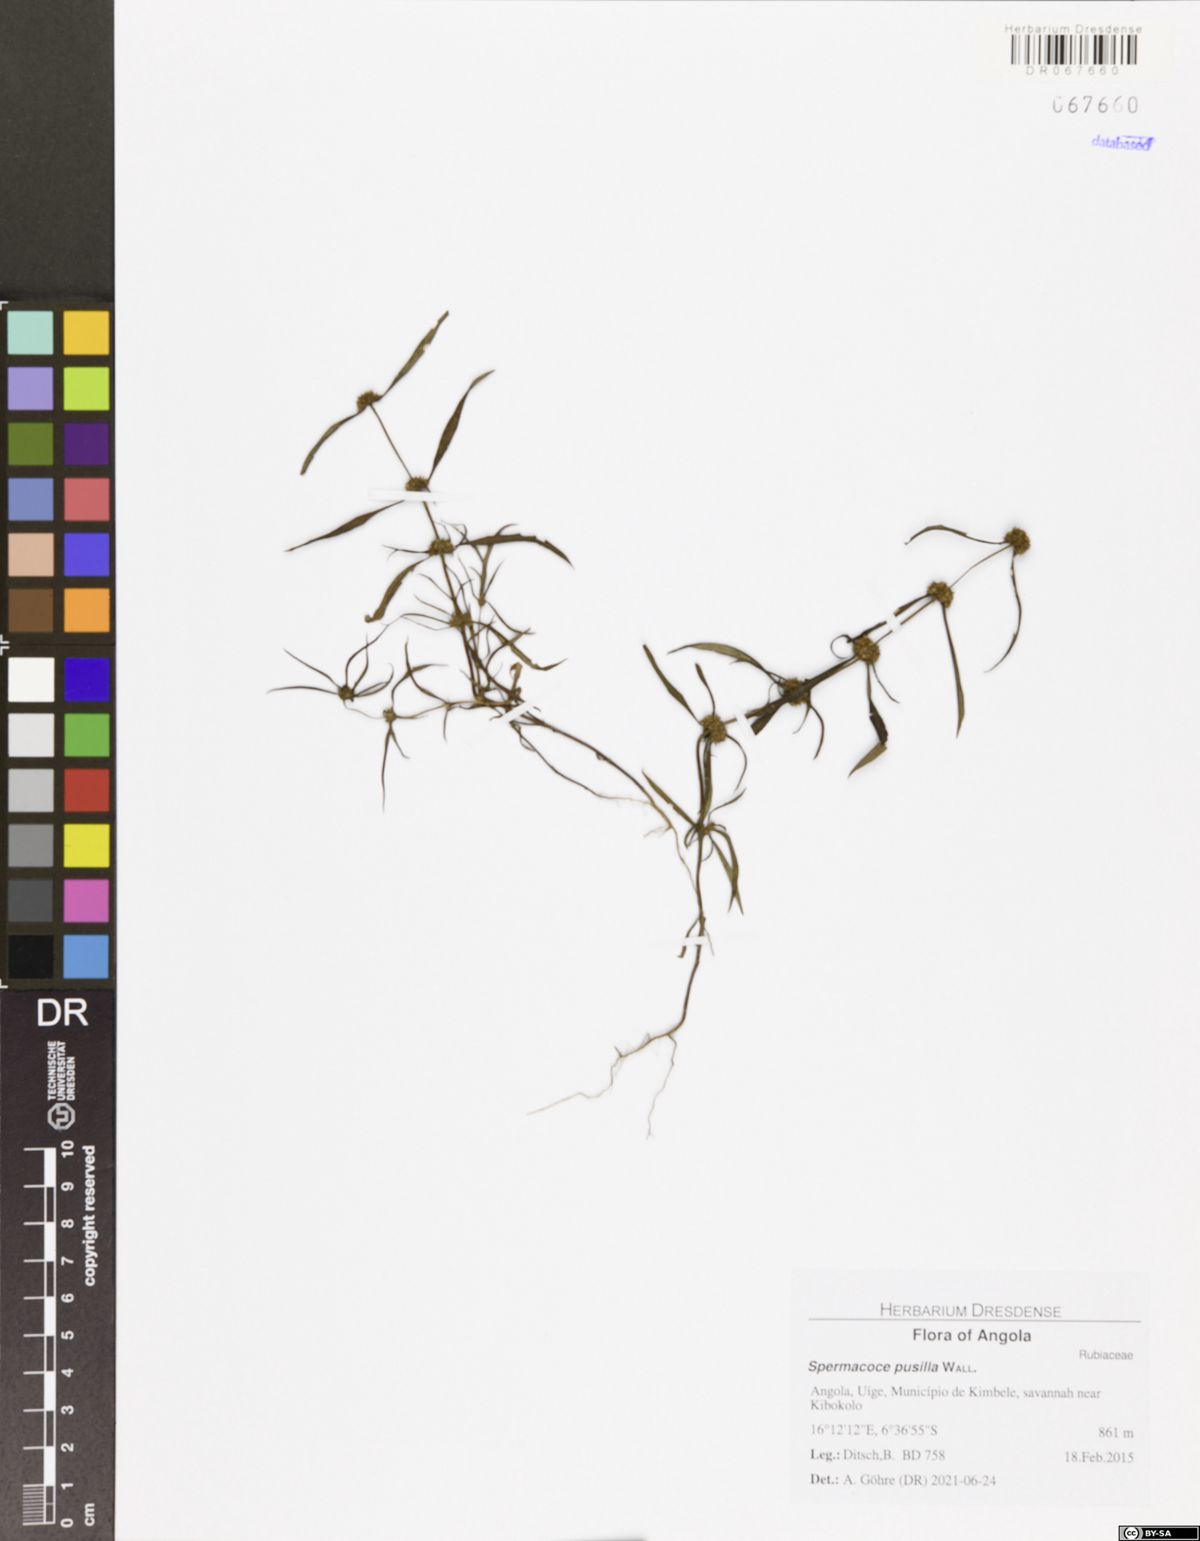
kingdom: Plantae
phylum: Tracheophyta
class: Magnoliopsida
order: Gentianales
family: Rubiaceae
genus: Spermacoce
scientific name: Spermacoce pusilla
